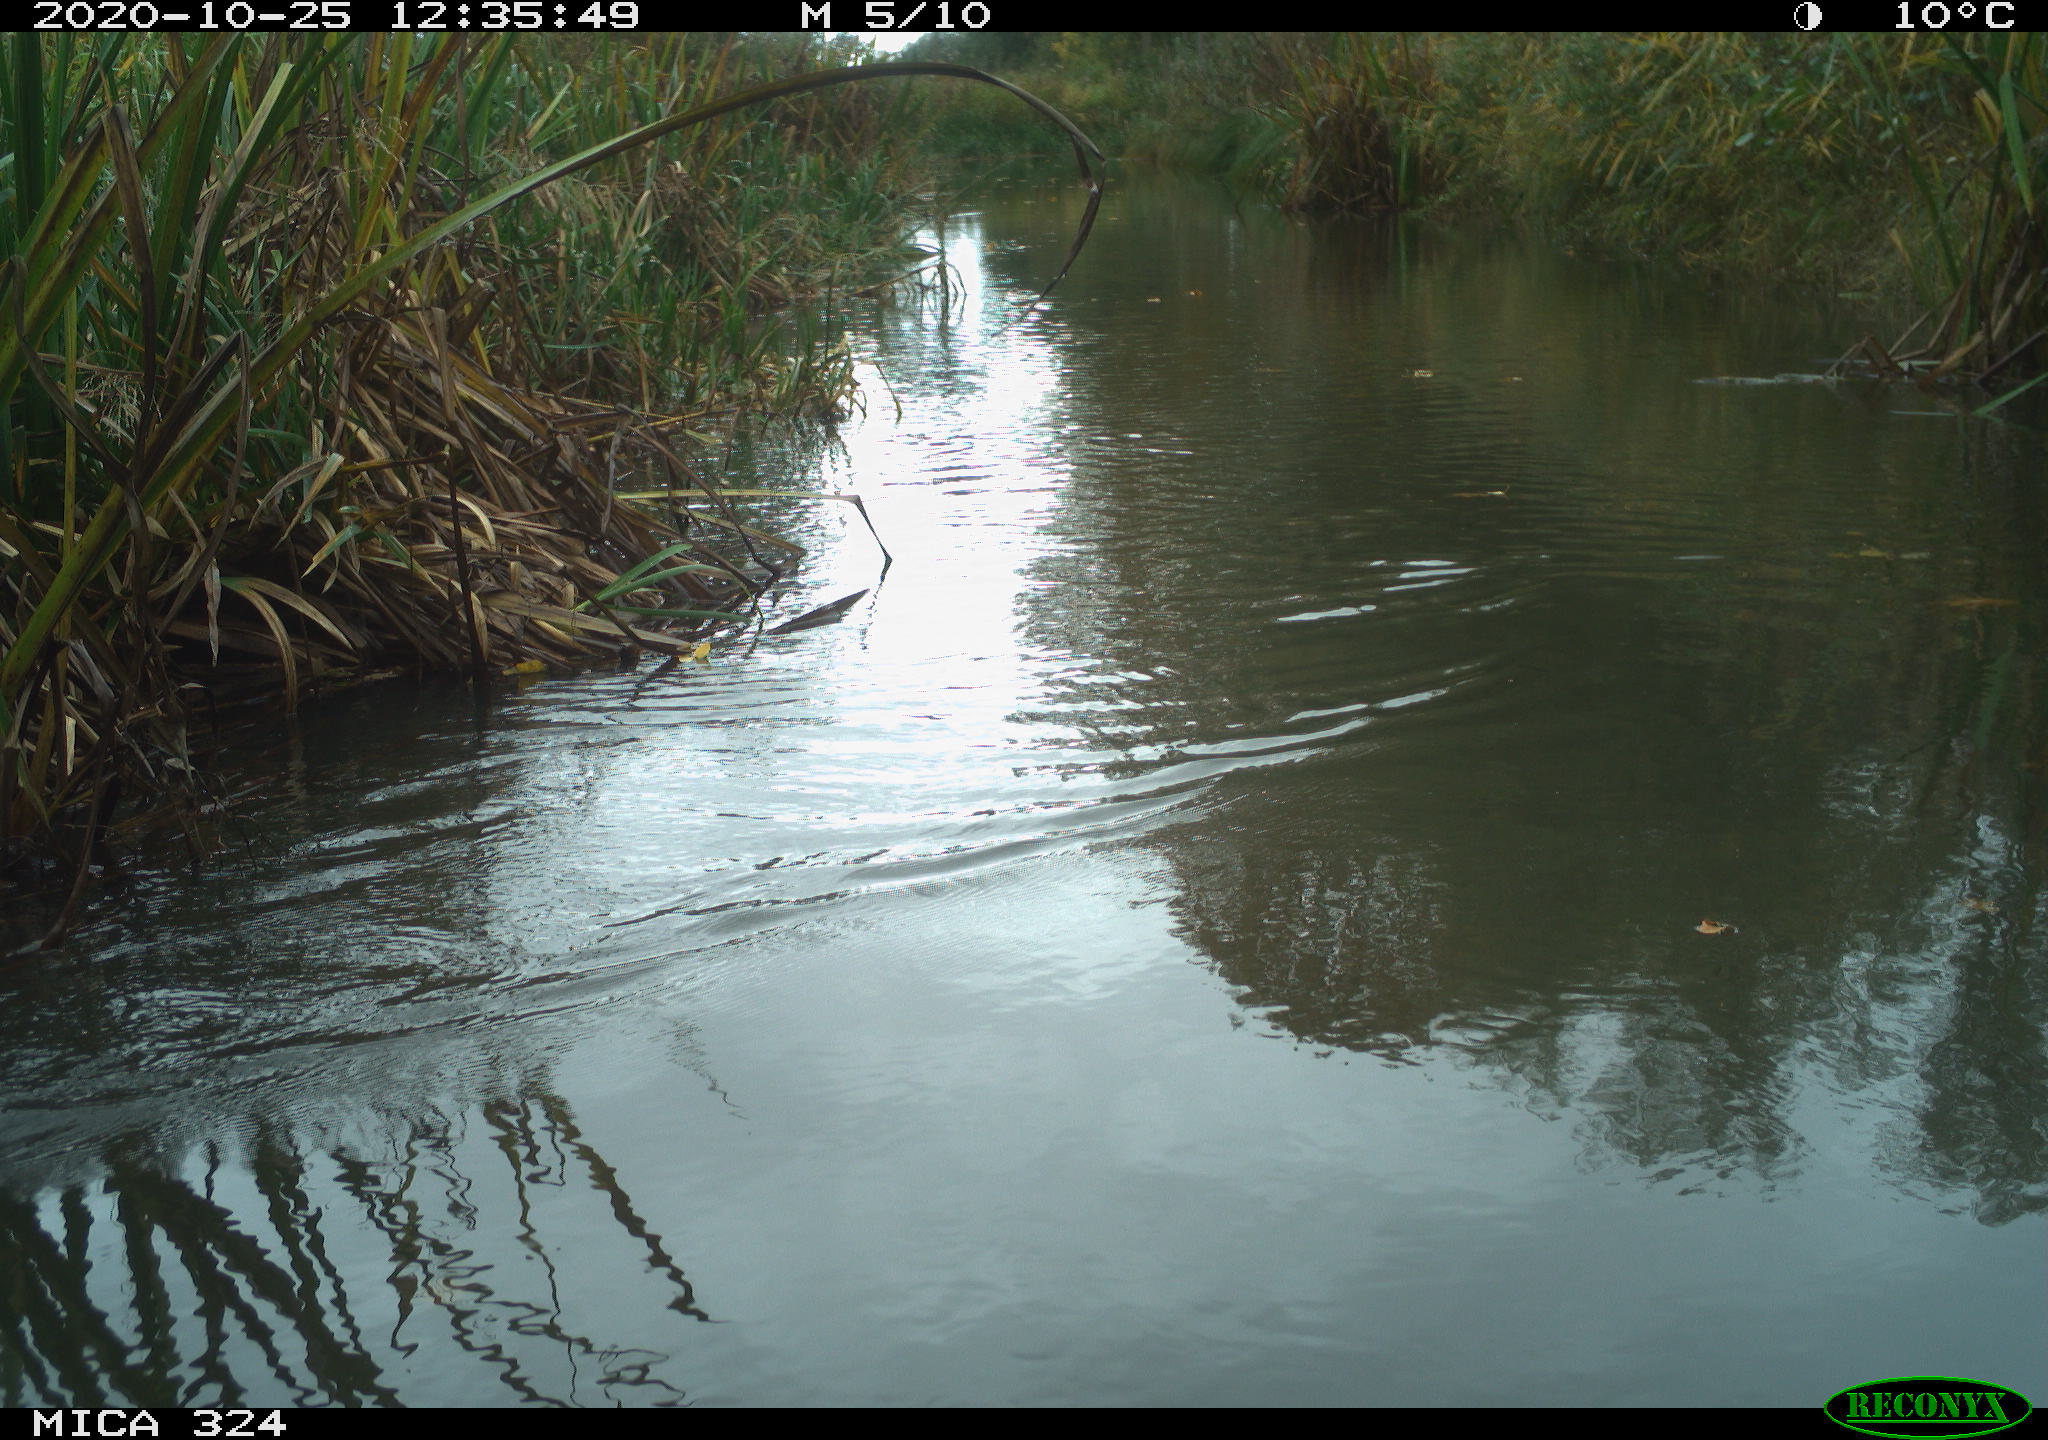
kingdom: Animalia
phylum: Chordata
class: Aves
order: Gruiformes
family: Rallidae
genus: Gallinula
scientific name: Gallinula chloropus
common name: Common moorhen
